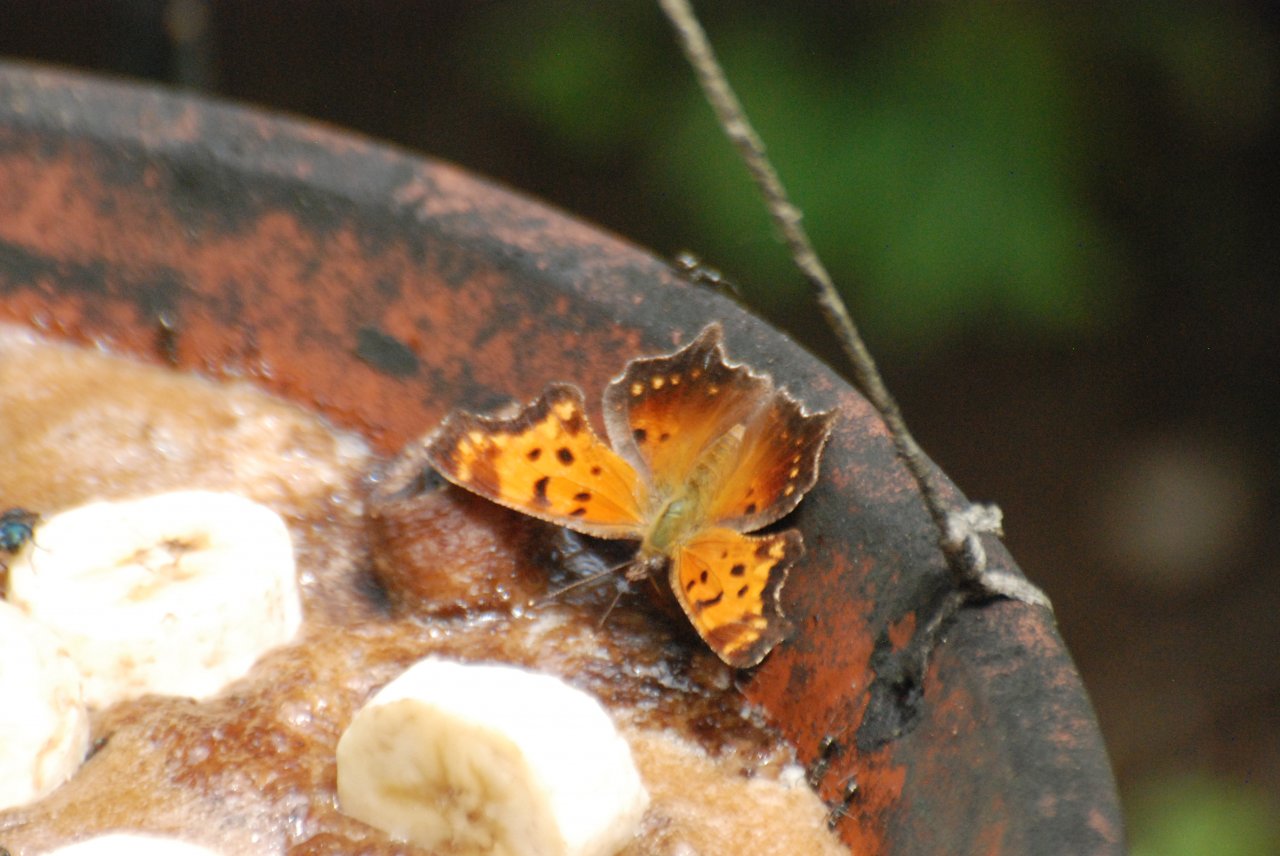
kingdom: Animalia
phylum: Arthropoda
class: Insecta
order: Lepidoptera
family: Nymphalidae
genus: Polygonia
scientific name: Polygonia progne
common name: Gray Comma
